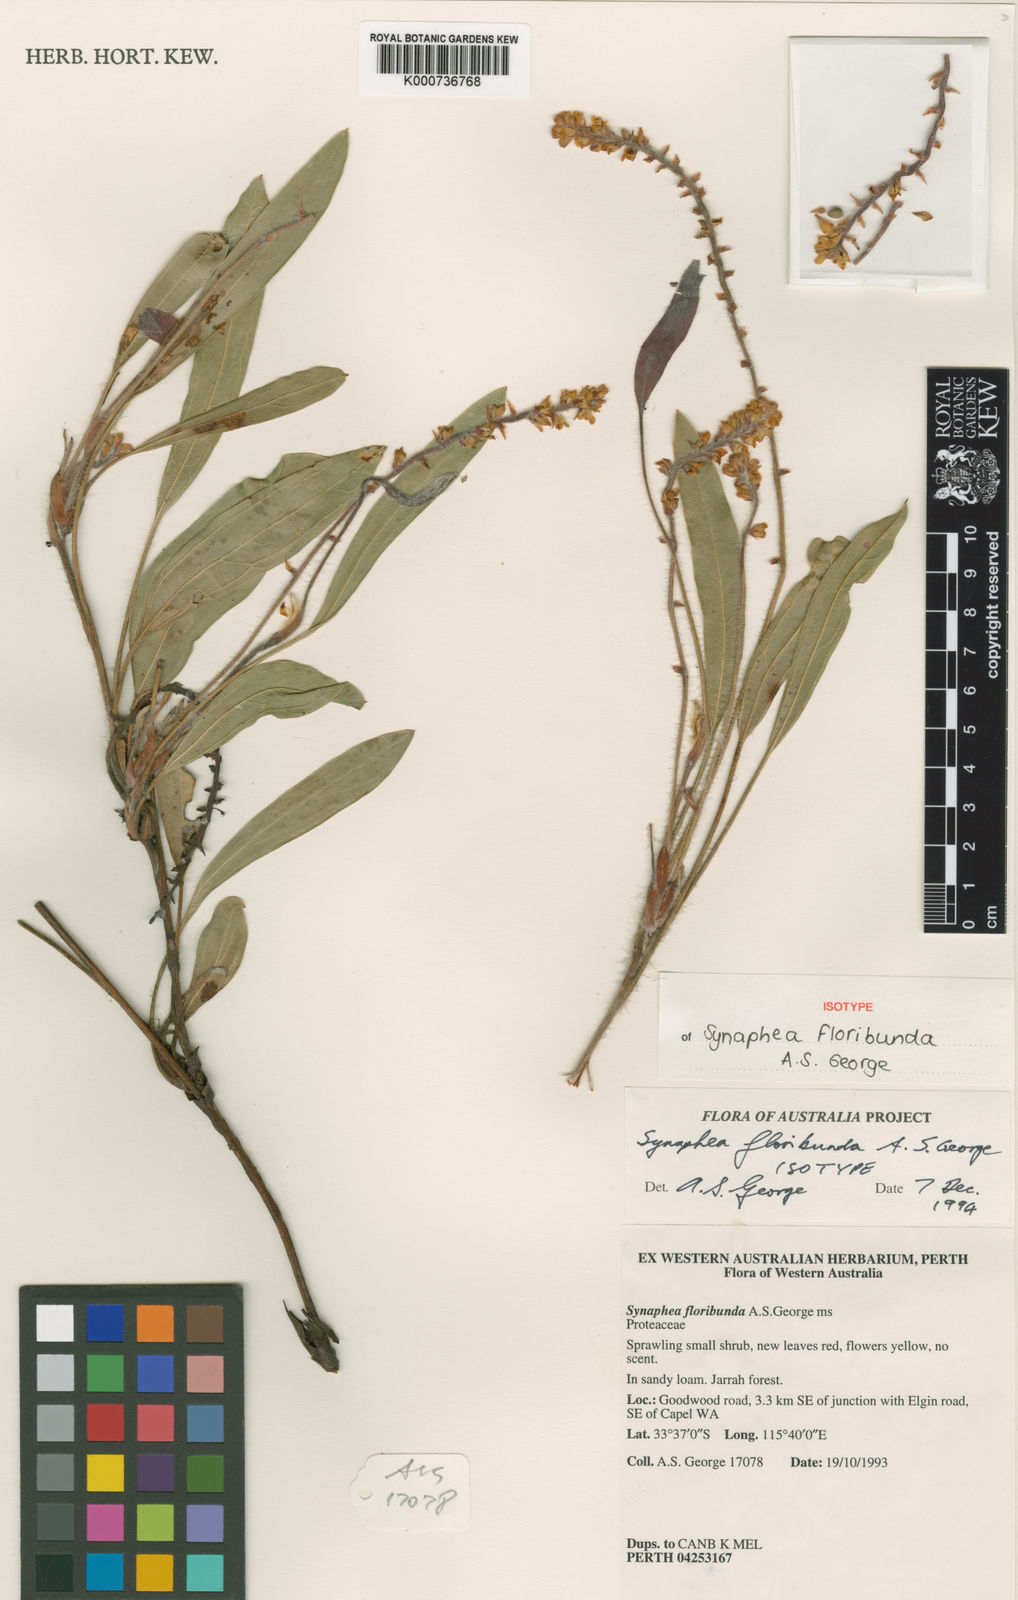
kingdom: Plantae
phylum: Tracheophyta
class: Magnoliopsida
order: Proteales
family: Proteaceae
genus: Synaphea
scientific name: Synaphea floribunda
